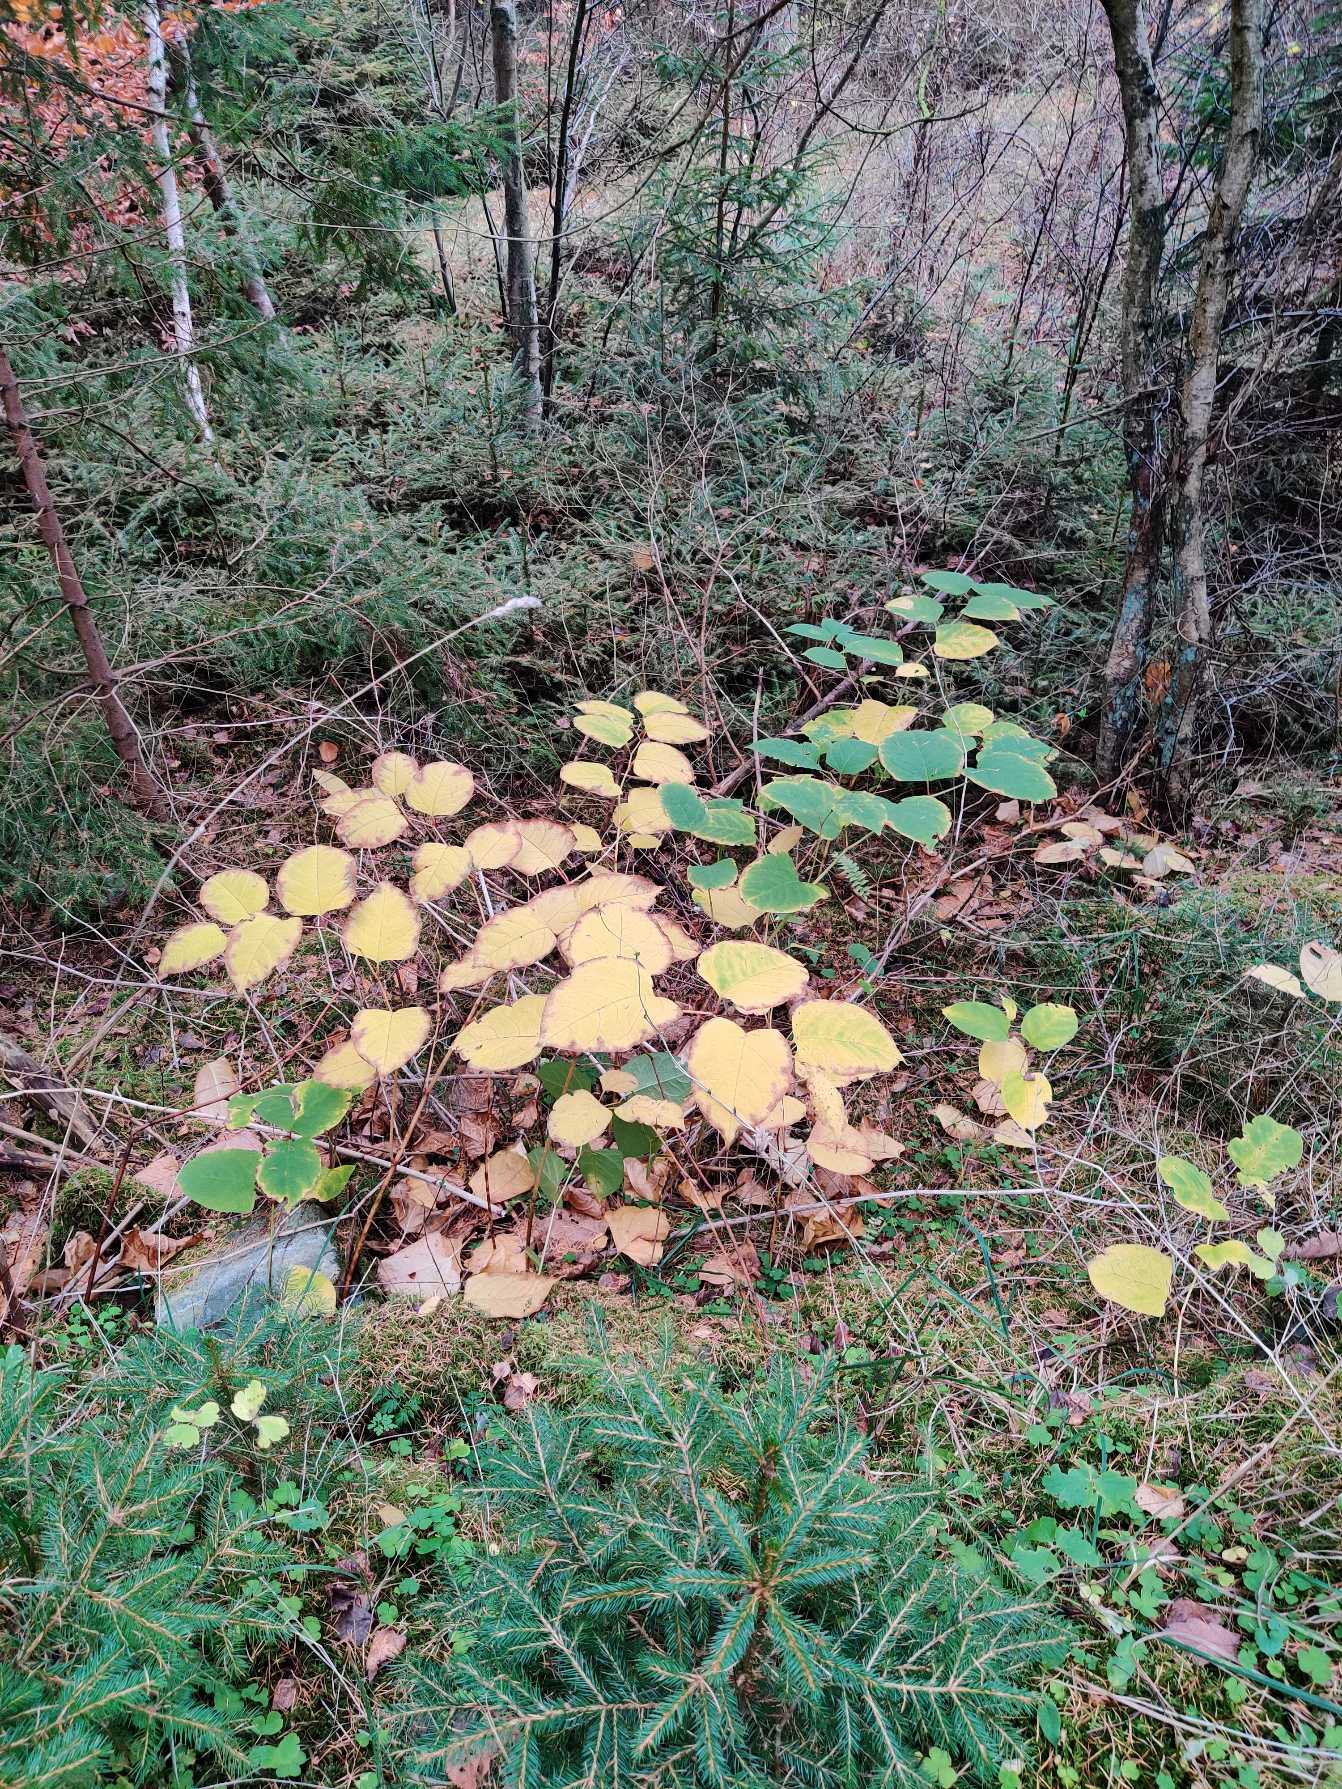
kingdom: Plantae
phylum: Tracheophyta
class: Magnoliopsida
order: Caryophyllales
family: Polygonaceae
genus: Reynoutria
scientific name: Reynoutria japonica
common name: Japan-pileurt
